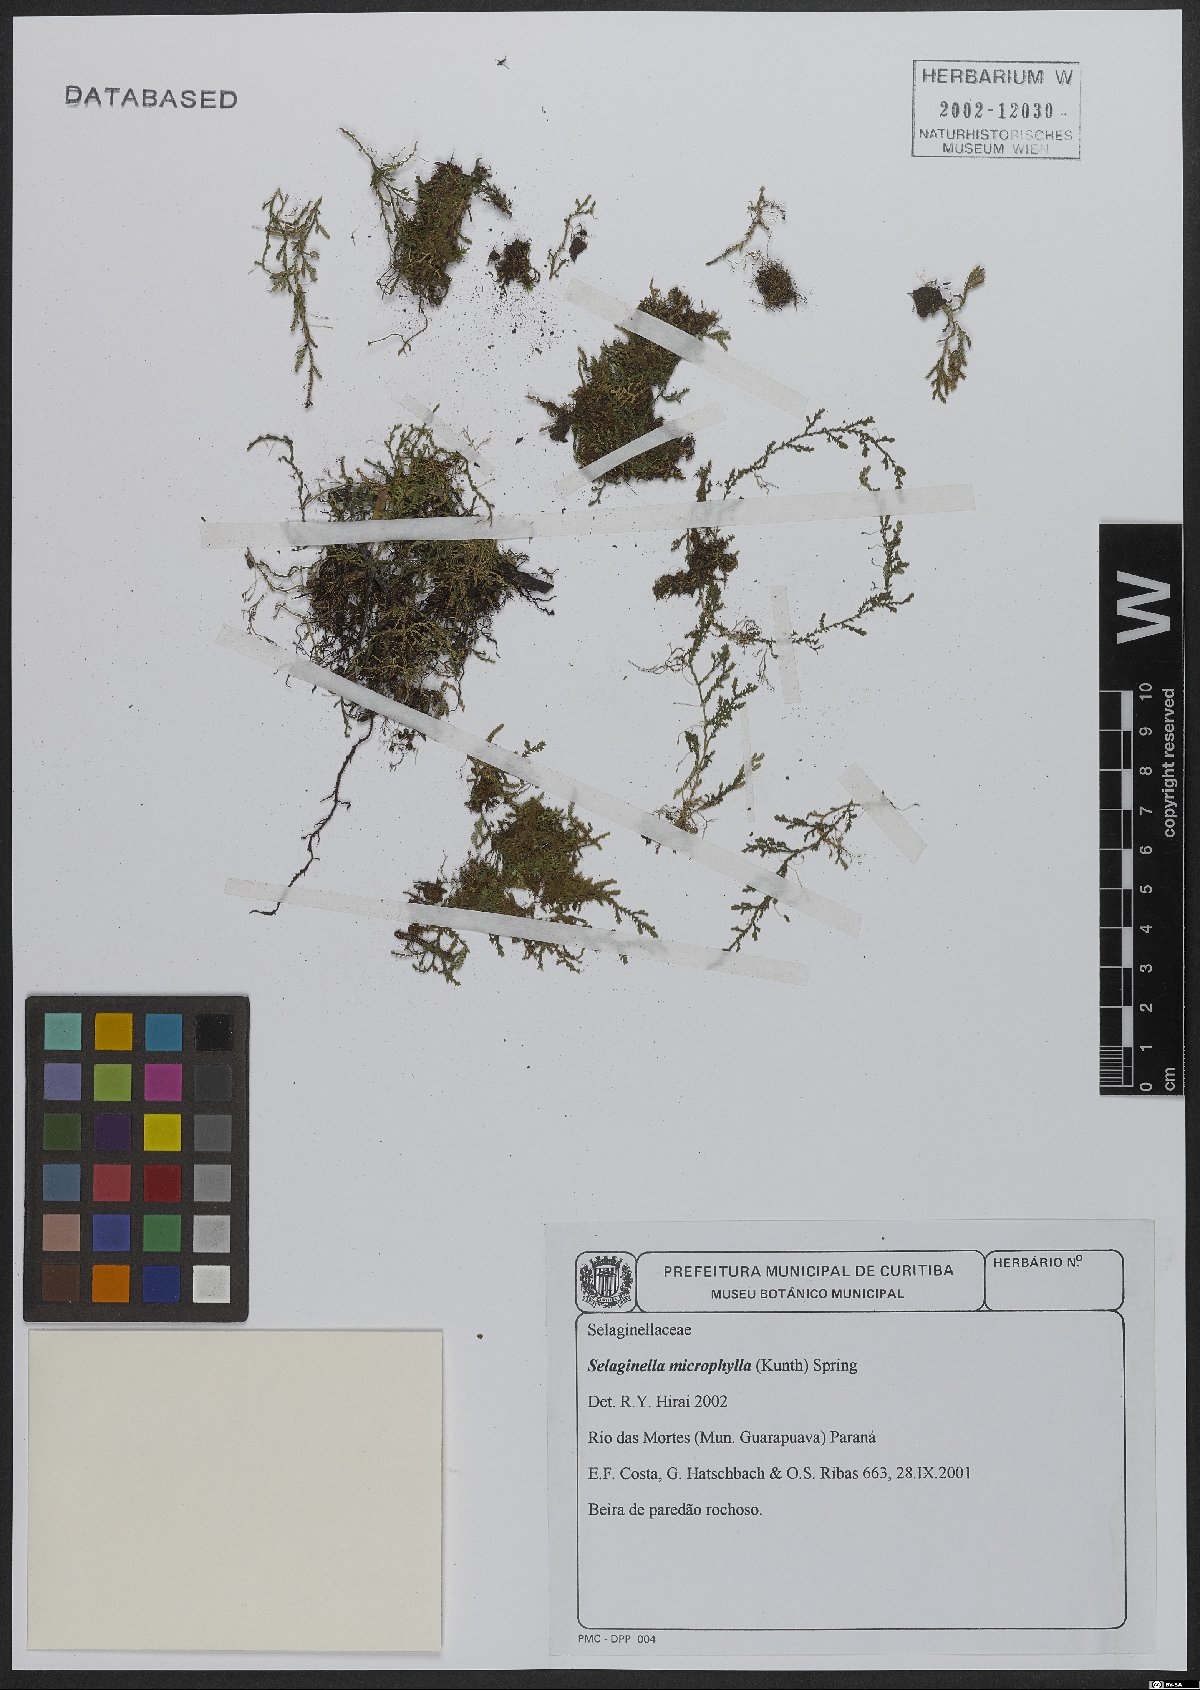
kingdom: Plantae
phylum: Tracheophyta
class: Lycopodiopsida
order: Selaginellales
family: Selaginellaceae
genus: Selaginella
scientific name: Selaginella microphylla
